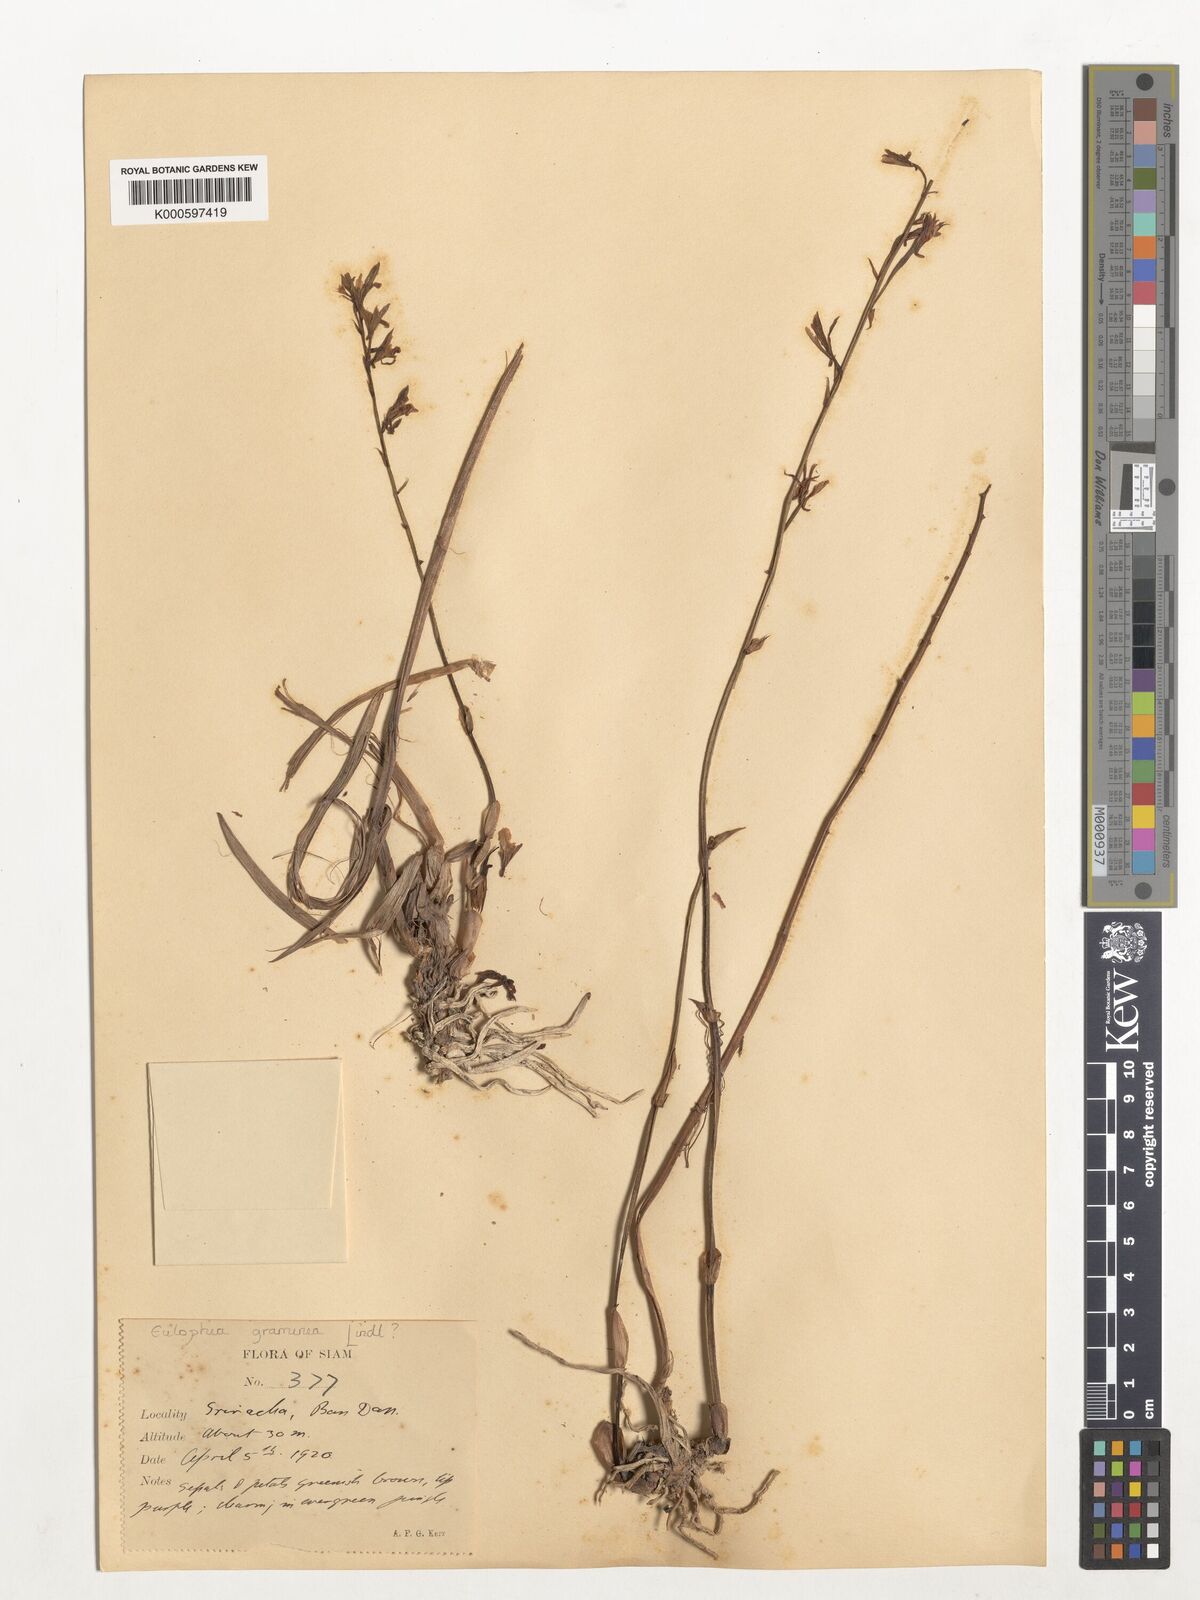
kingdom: Plantae
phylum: Tracheophyta
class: Liliopsida
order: Asparagales
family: Orchidaceae
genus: Eulophia
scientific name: Eulophia graminea
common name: Orchid
